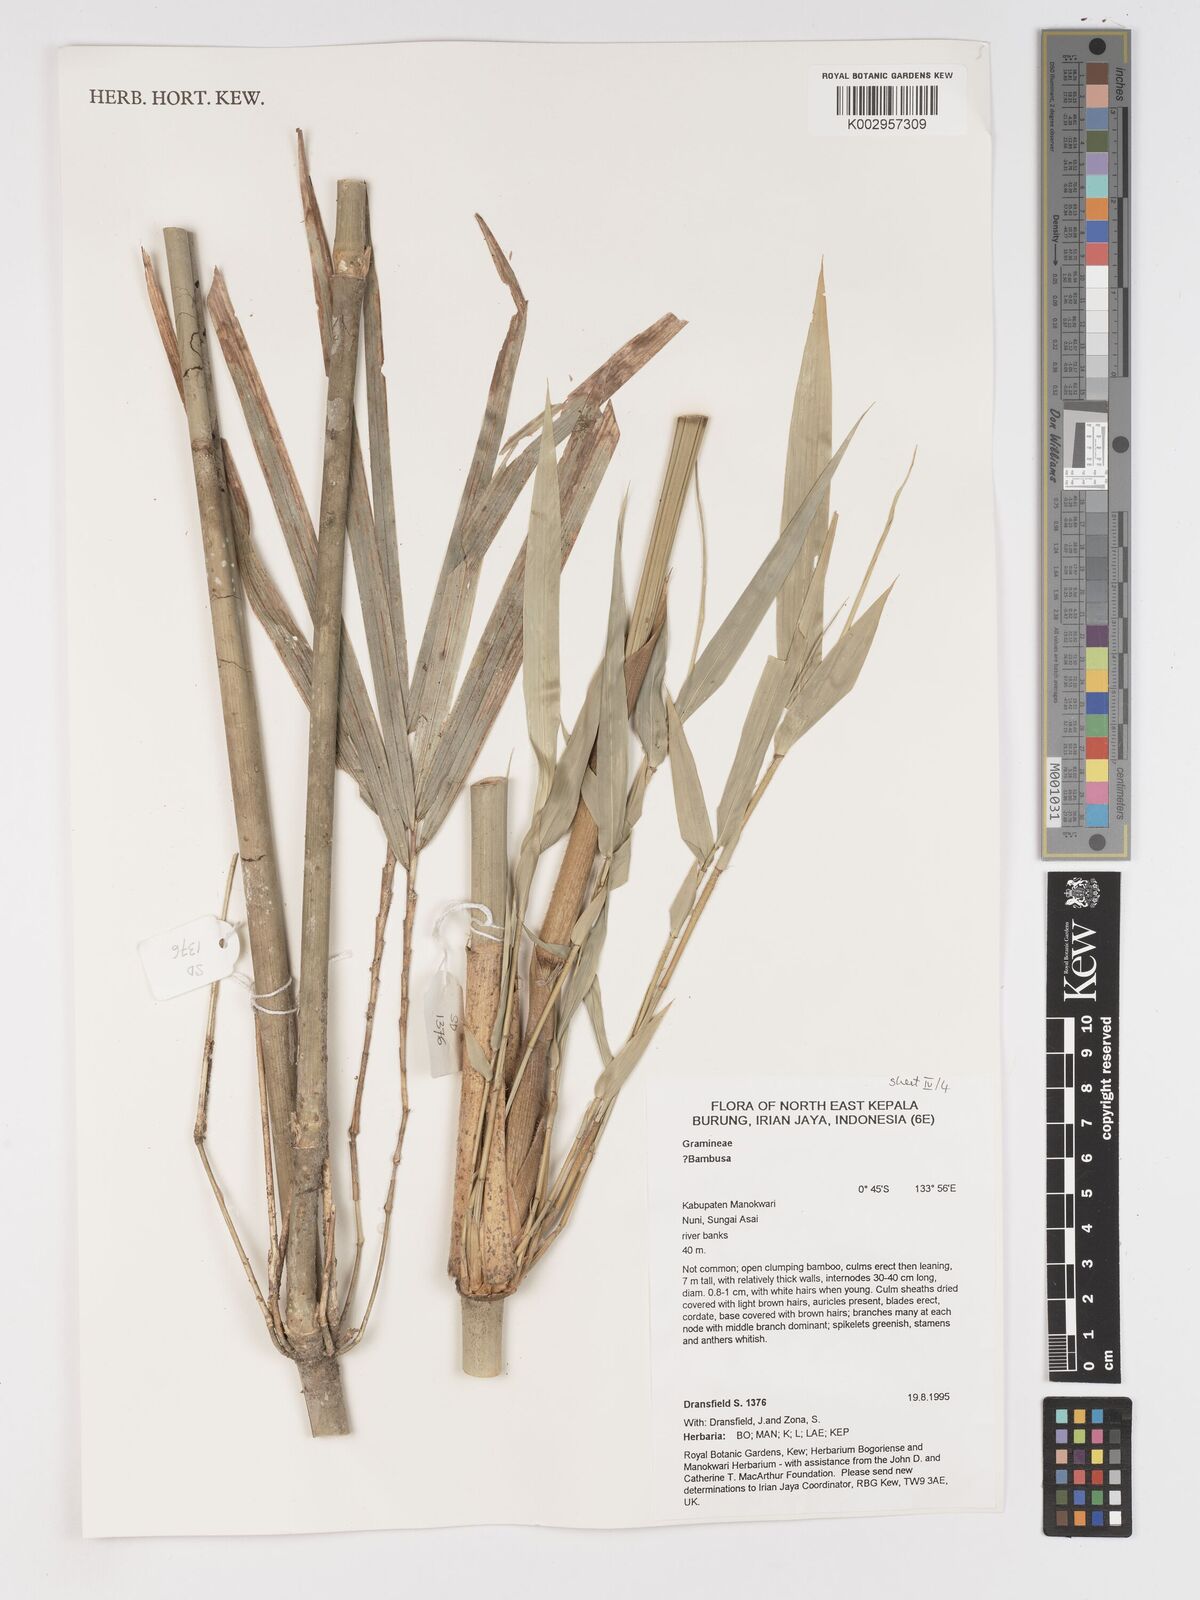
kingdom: Plantae
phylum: Tracheophyta
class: Liliopsida
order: Poales
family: Poaceae
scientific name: Poaceae
